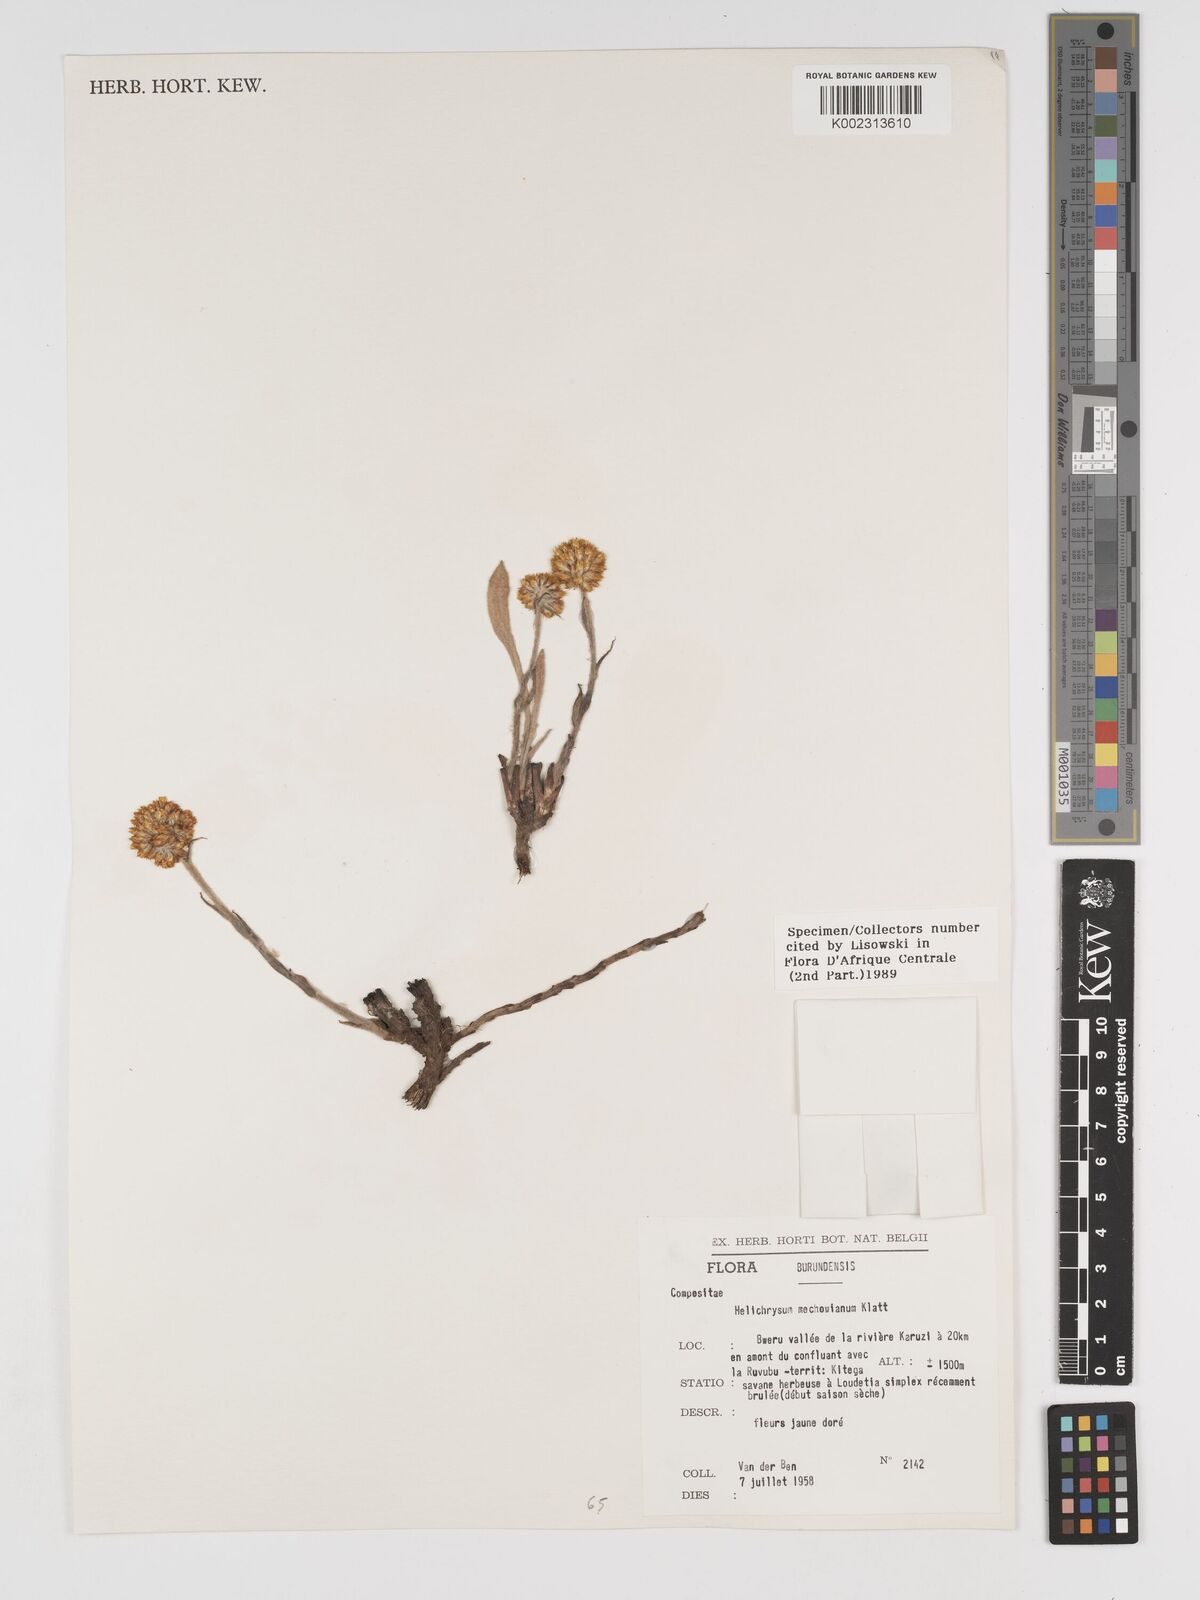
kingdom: Plantae
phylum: Tracheophyta
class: Magnoliopsida
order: Asterales
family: Asteraceae
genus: Helichrysum
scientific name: Helichrysum mechowianum
